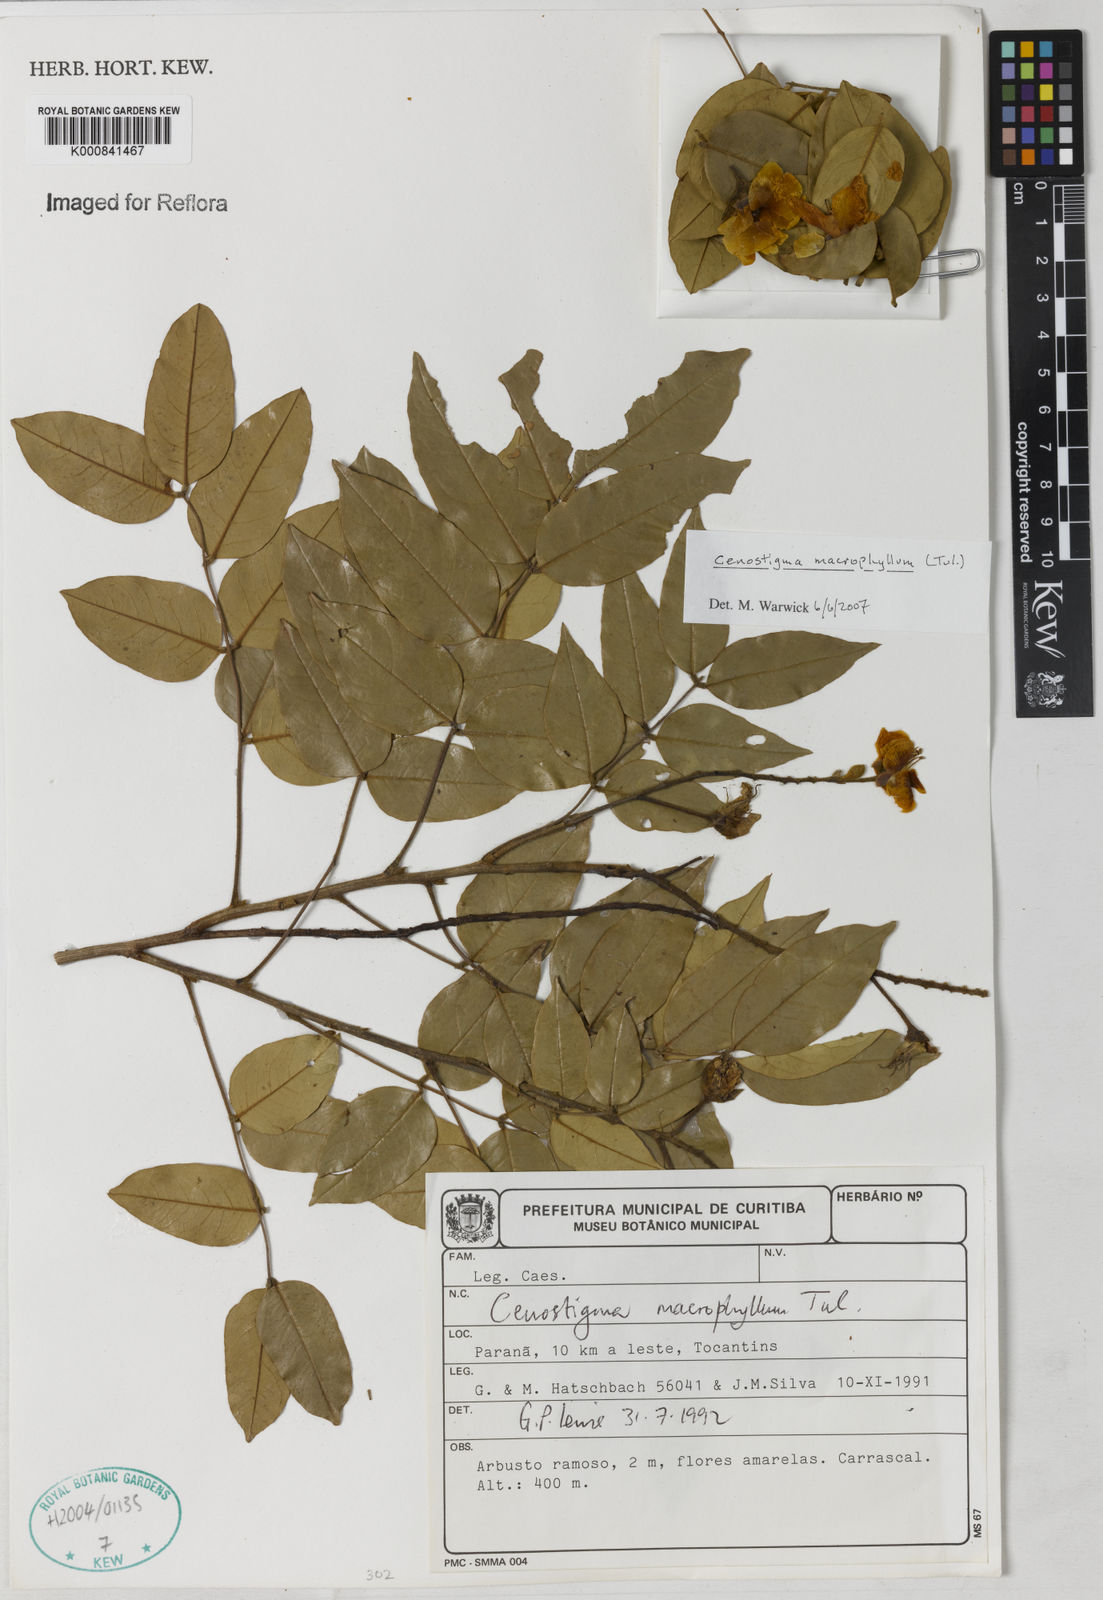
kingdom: Plantae
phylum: Tracheophyta
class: Magnoliopsida
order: Fabales
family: Fabaceae
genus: Cenostigma
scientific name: Cenostigma macrophyllum
